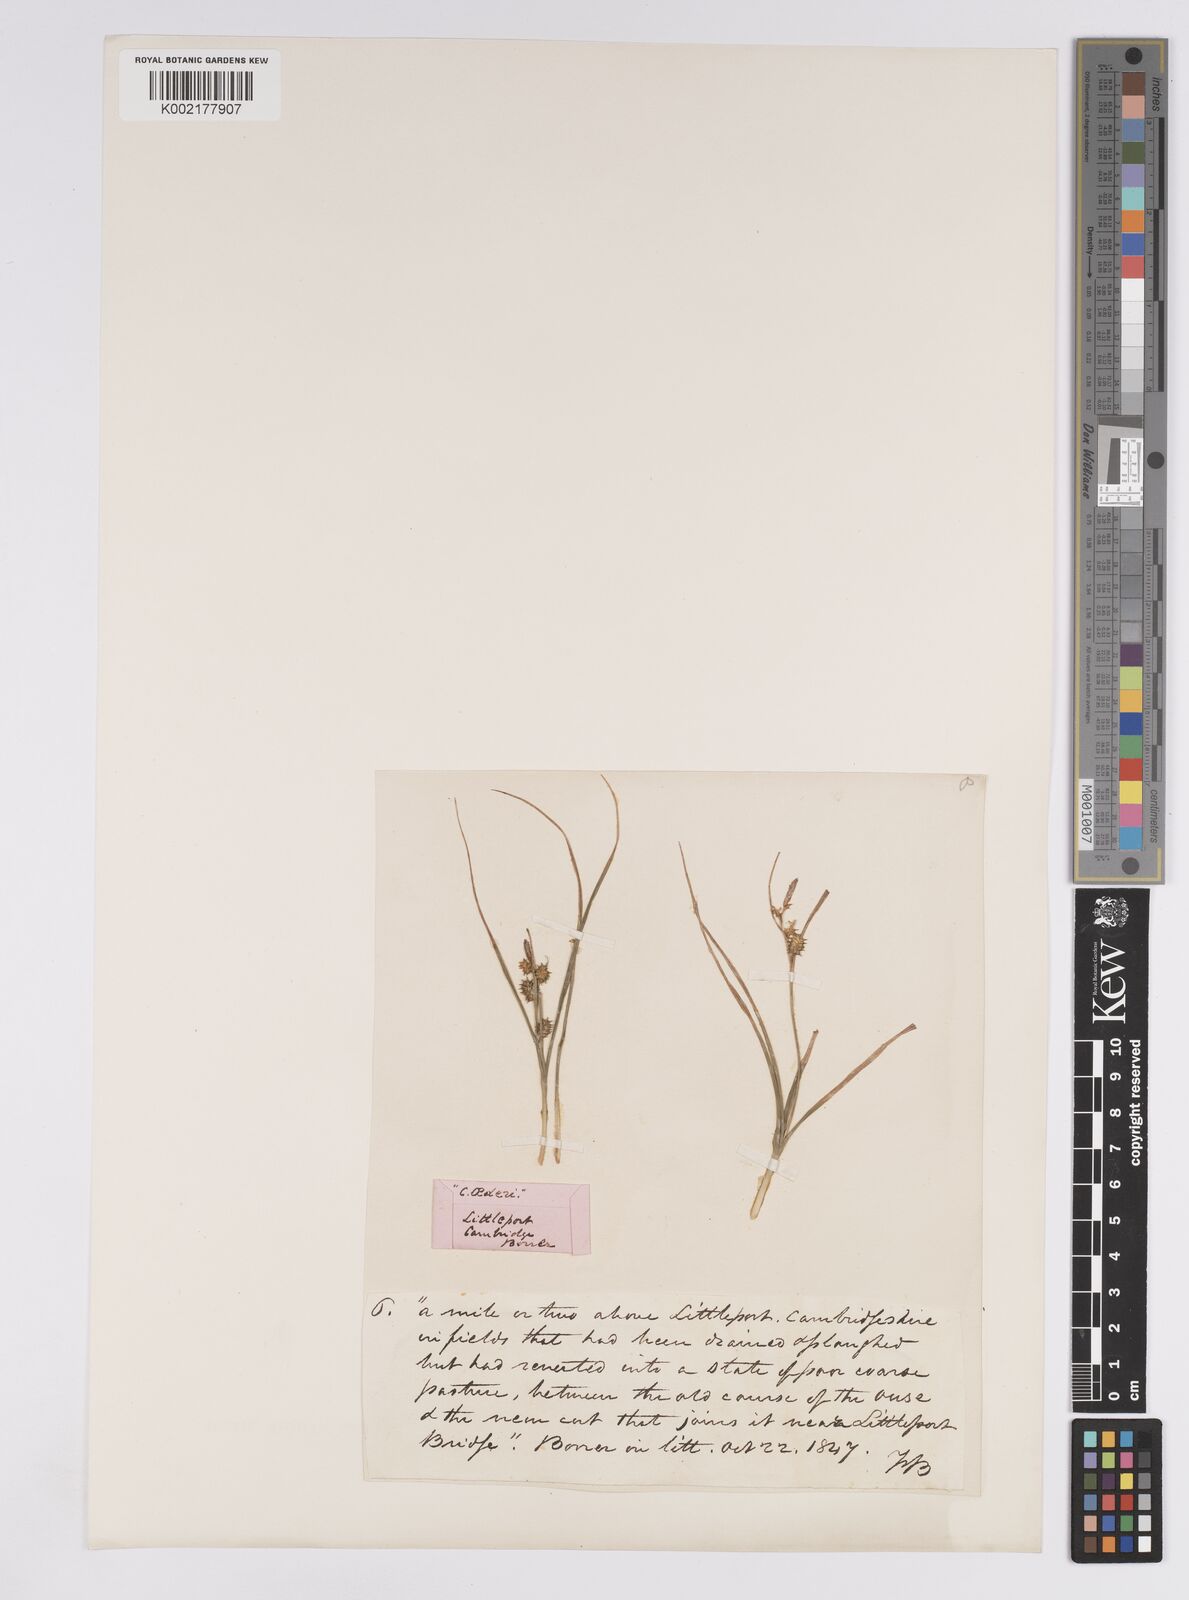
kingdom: Plantae
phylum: Tracheophyta
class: Liliopsida
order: Poales
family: Cyperaceae
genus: Carex
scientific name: Carex demissa
